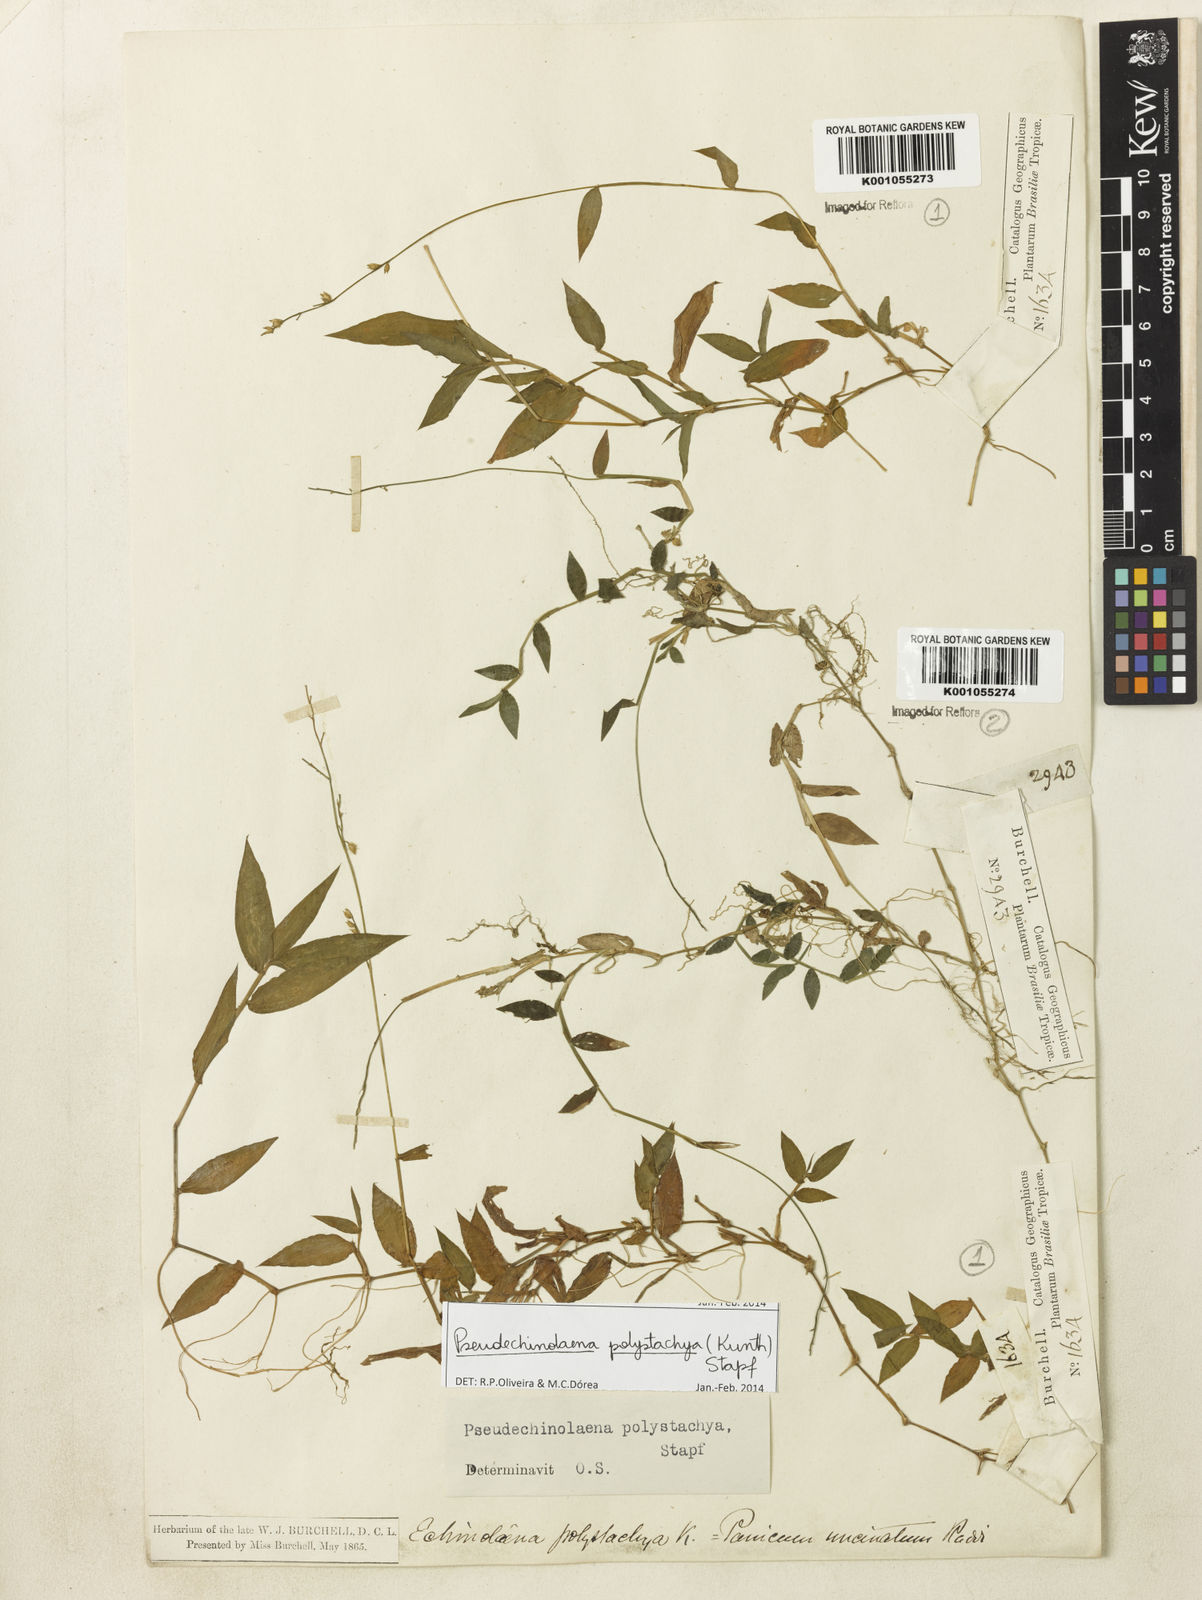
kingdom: Plantae
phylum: Tracheophyta
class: Liliopsida
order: Poales
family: Poaceae
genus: Pseudechinolaena
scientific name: Pseudechinolaena polystachya
